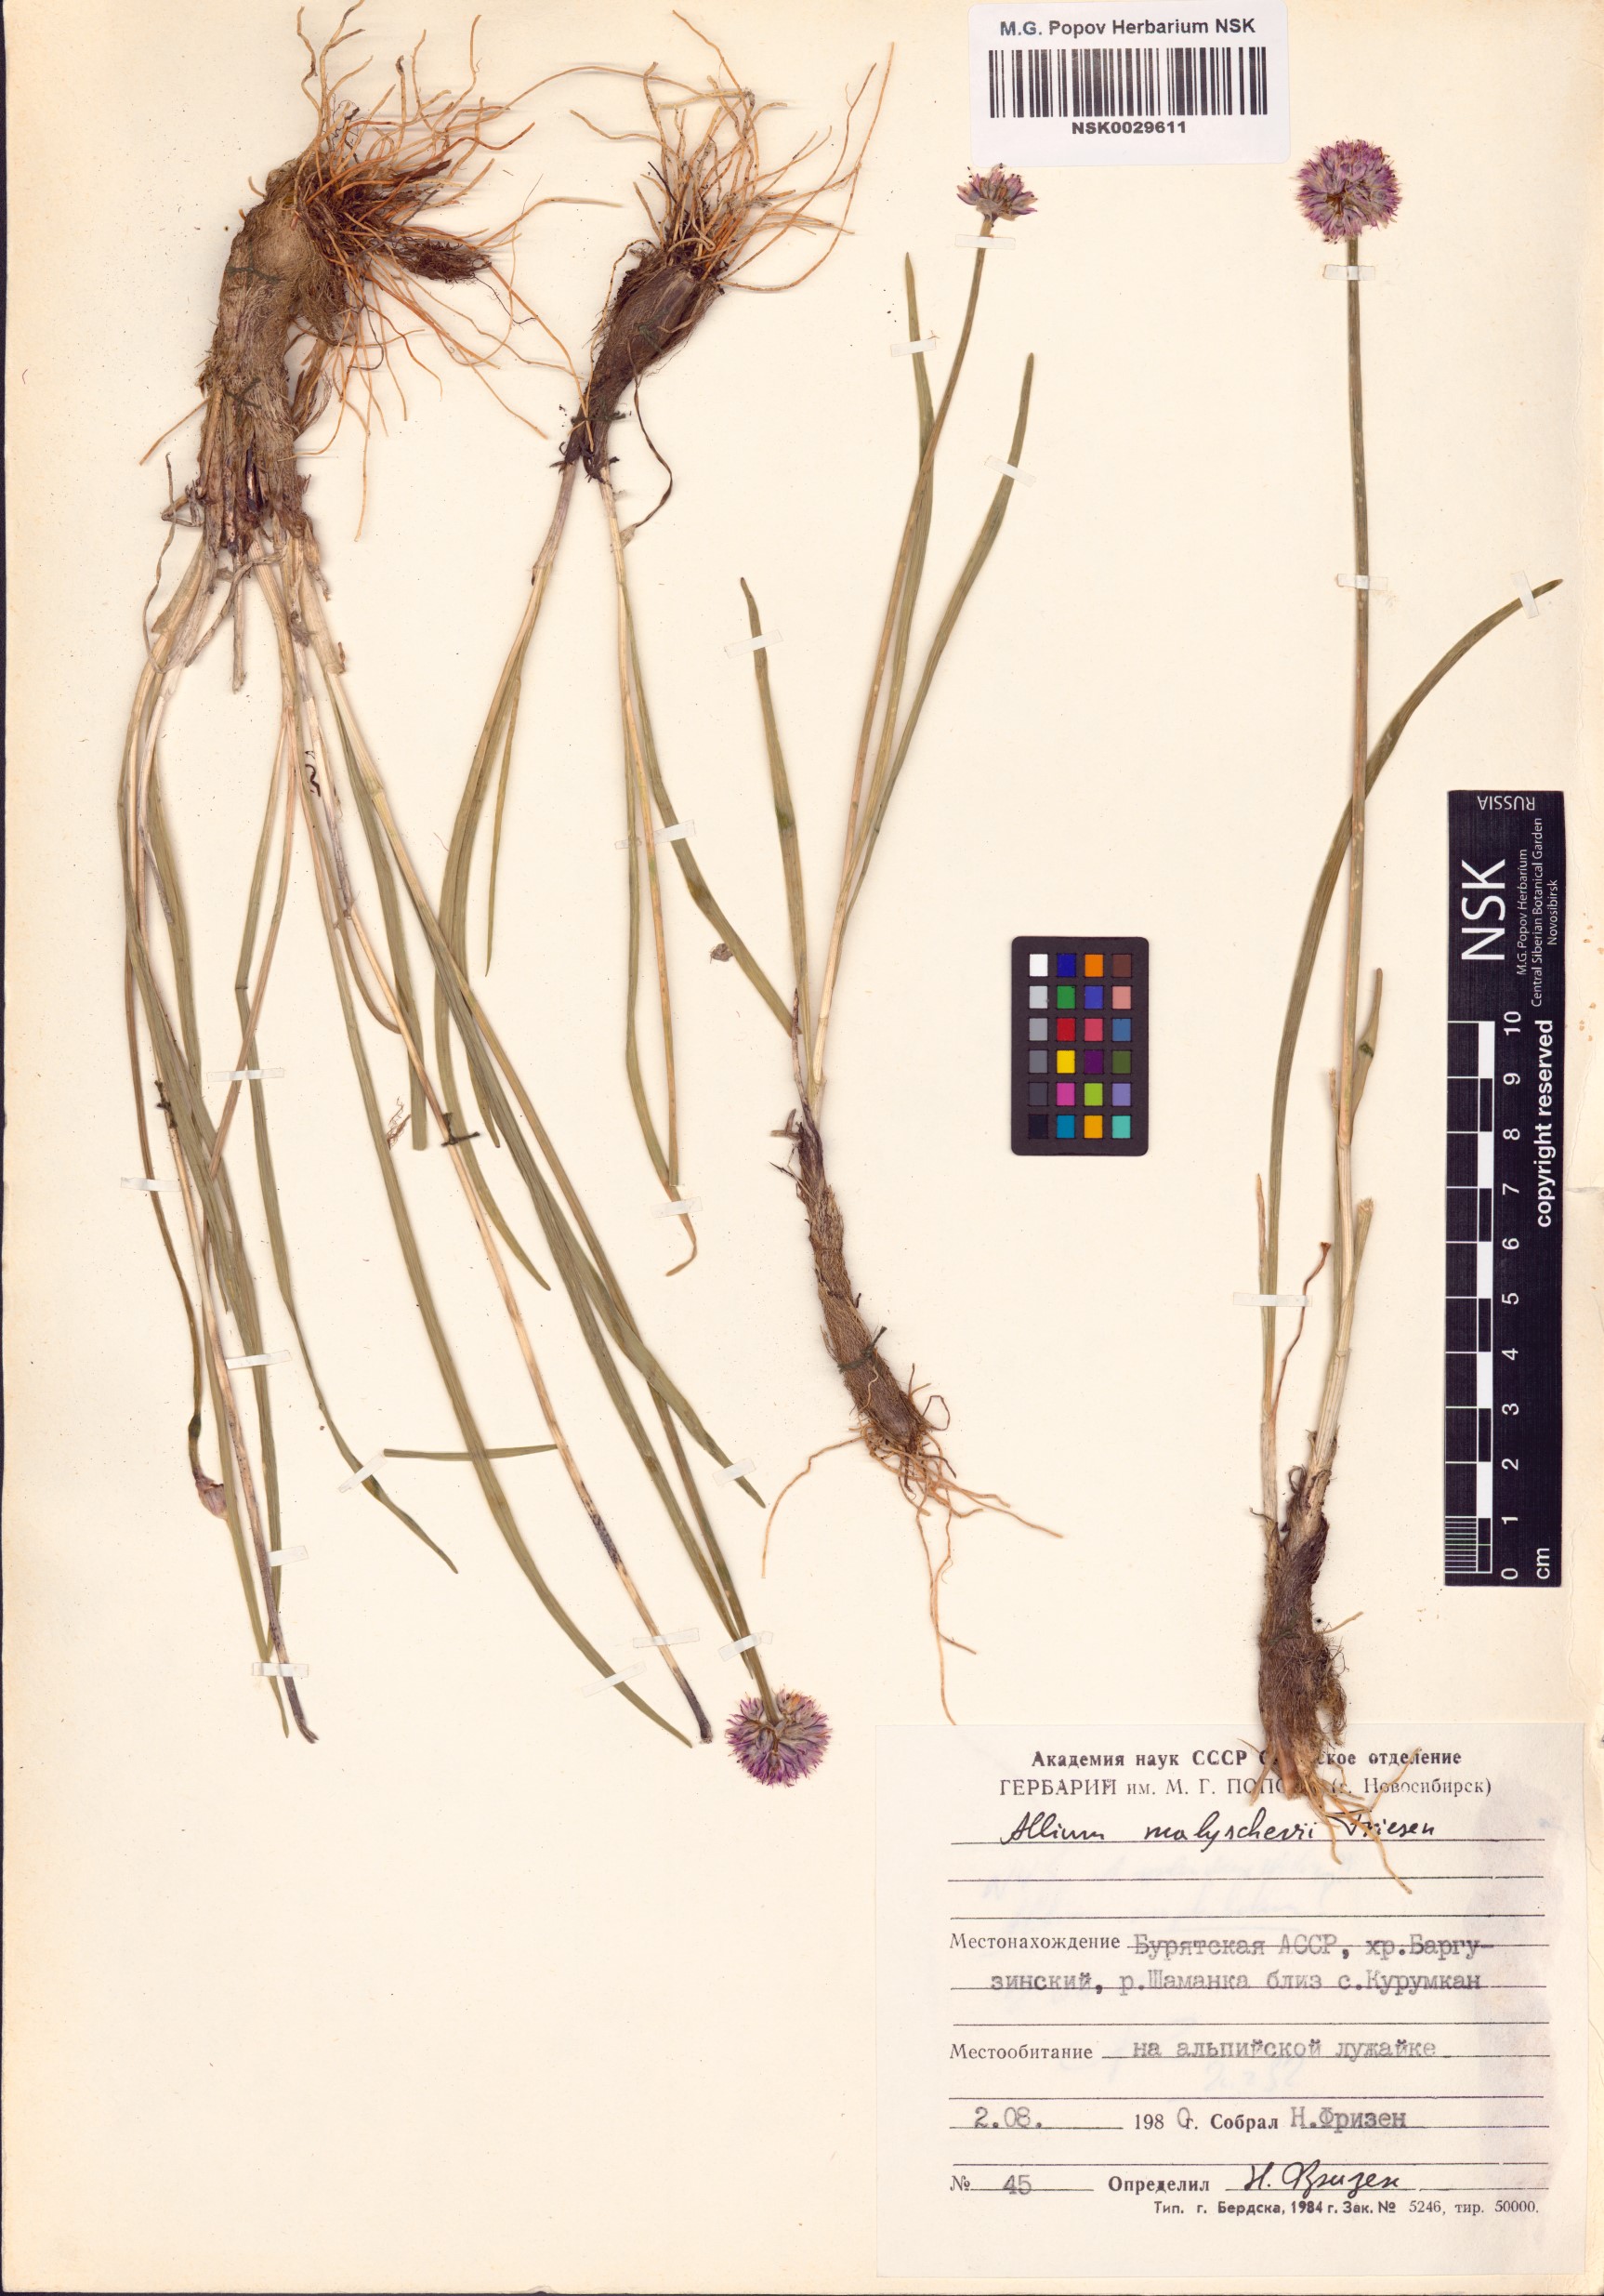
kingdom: Plantae
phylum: Tracheophyta
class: Liliopsida
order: Asparagales
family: Amaryllidaceae
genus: Allium
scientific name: Allium malyschevii
